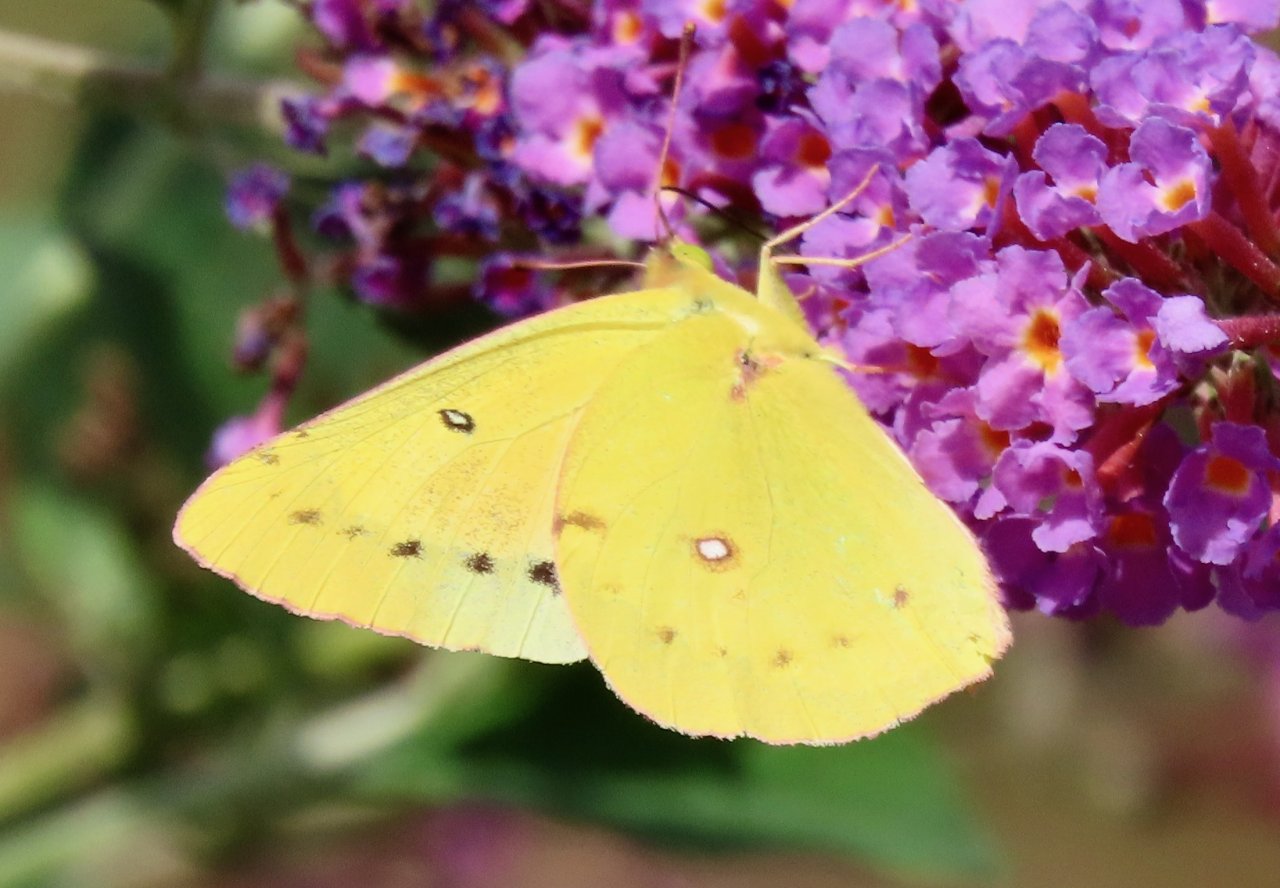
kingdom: Animalia
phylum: Arthropoda
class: Insecta
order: Lepidoptera
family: Pieridae
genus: Colias
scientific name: Colias eurytheme
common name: Orange Sulphur
